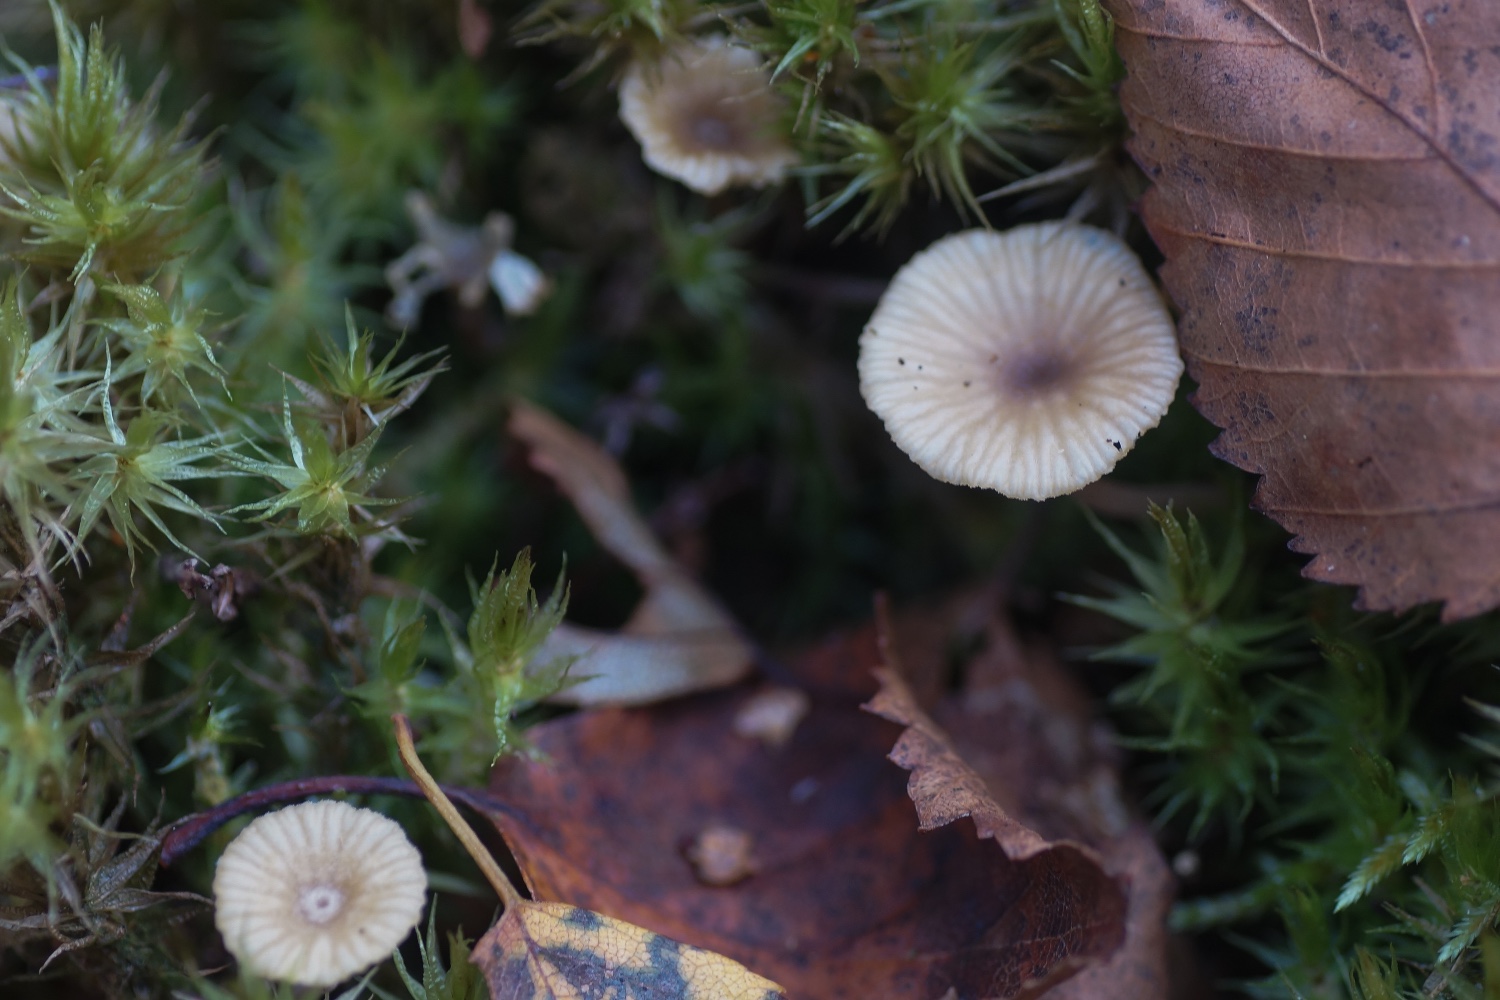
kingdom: Fungi
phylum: Basidiomycota
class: Agaricomycetes
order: Agaricales
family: Hygrophoraceae
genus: Lichenomphalia
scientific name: Lichenomphalia umbellifera
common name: tørve-lavhat
